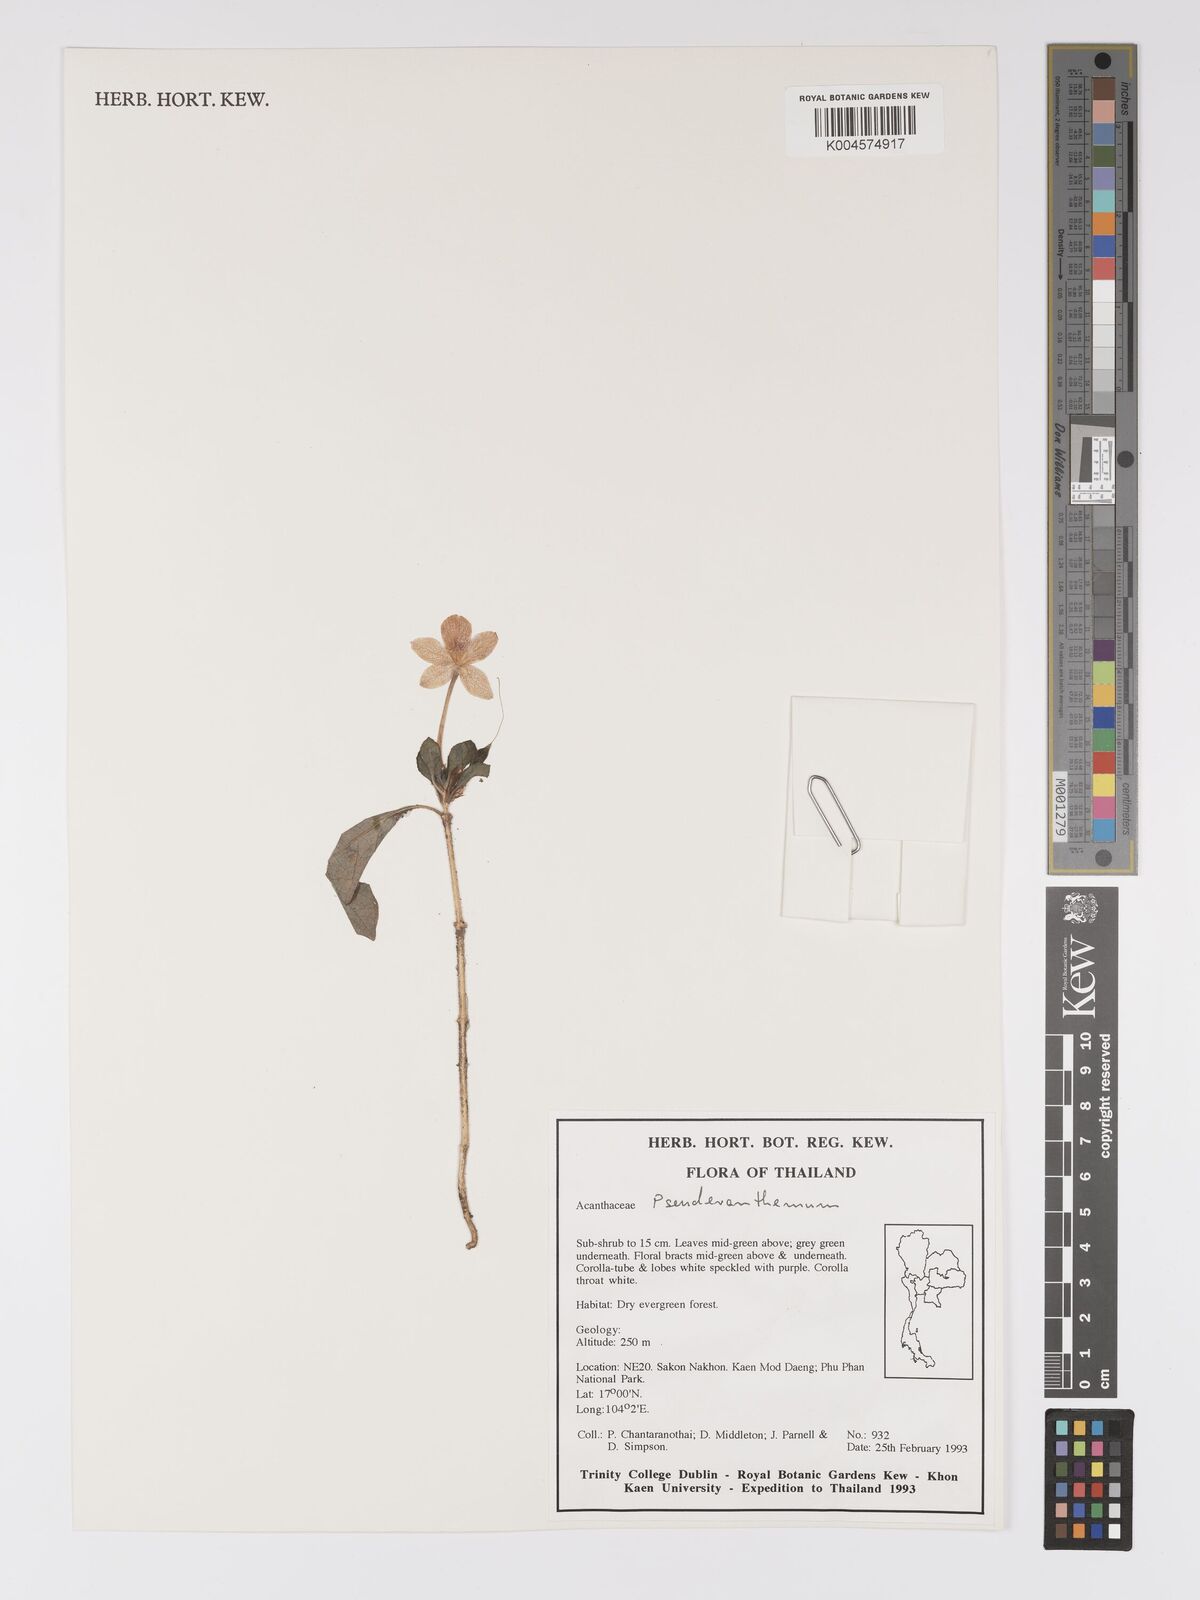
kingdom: Plantae
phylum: Tracheophyta
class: Magnoliopsida
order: Lamiales
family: Acanthaceae
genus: Pseuderanthemum
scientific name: Pseuderanthemum
